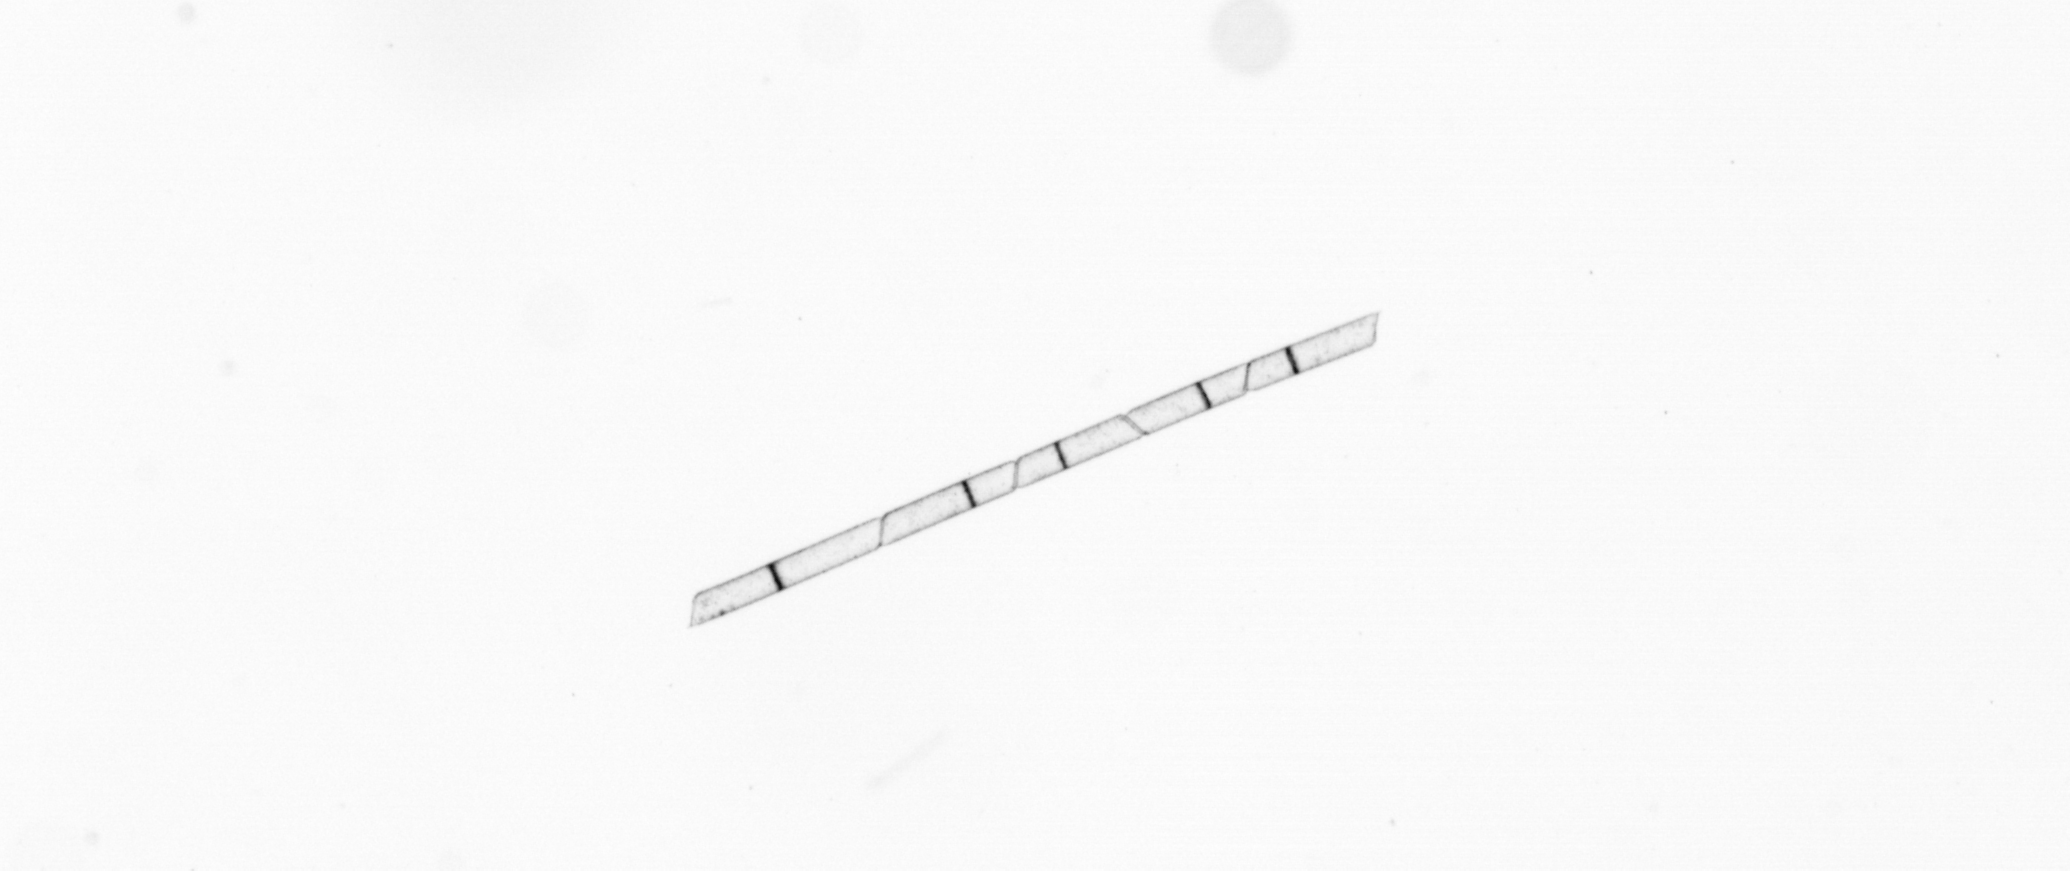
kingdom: Chromista
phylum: Ochrophyta
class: Bacillariophyceae
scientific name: Bacillariophyceae
